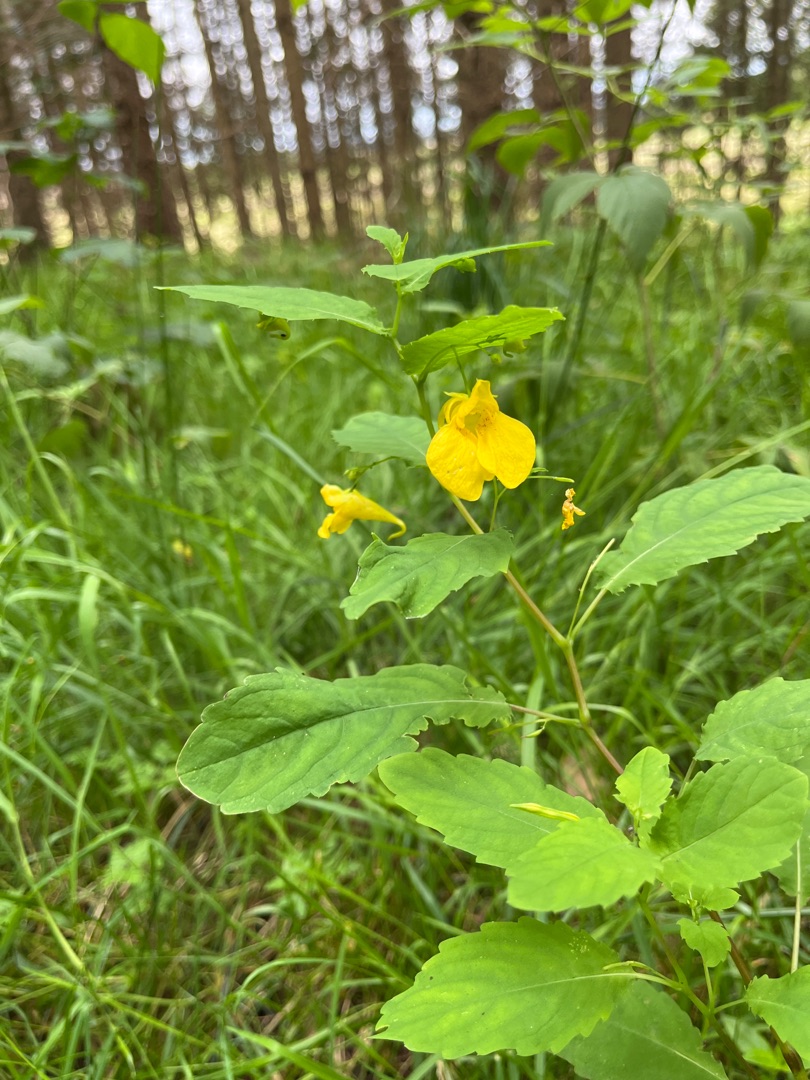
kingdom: Plantae
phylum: Tracheophyta
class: Magnoliopsida
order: Ericales
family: Balsaminaceae
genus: Impatiens
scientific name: Impatiens noli-tangere
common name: Spring-balsamin
